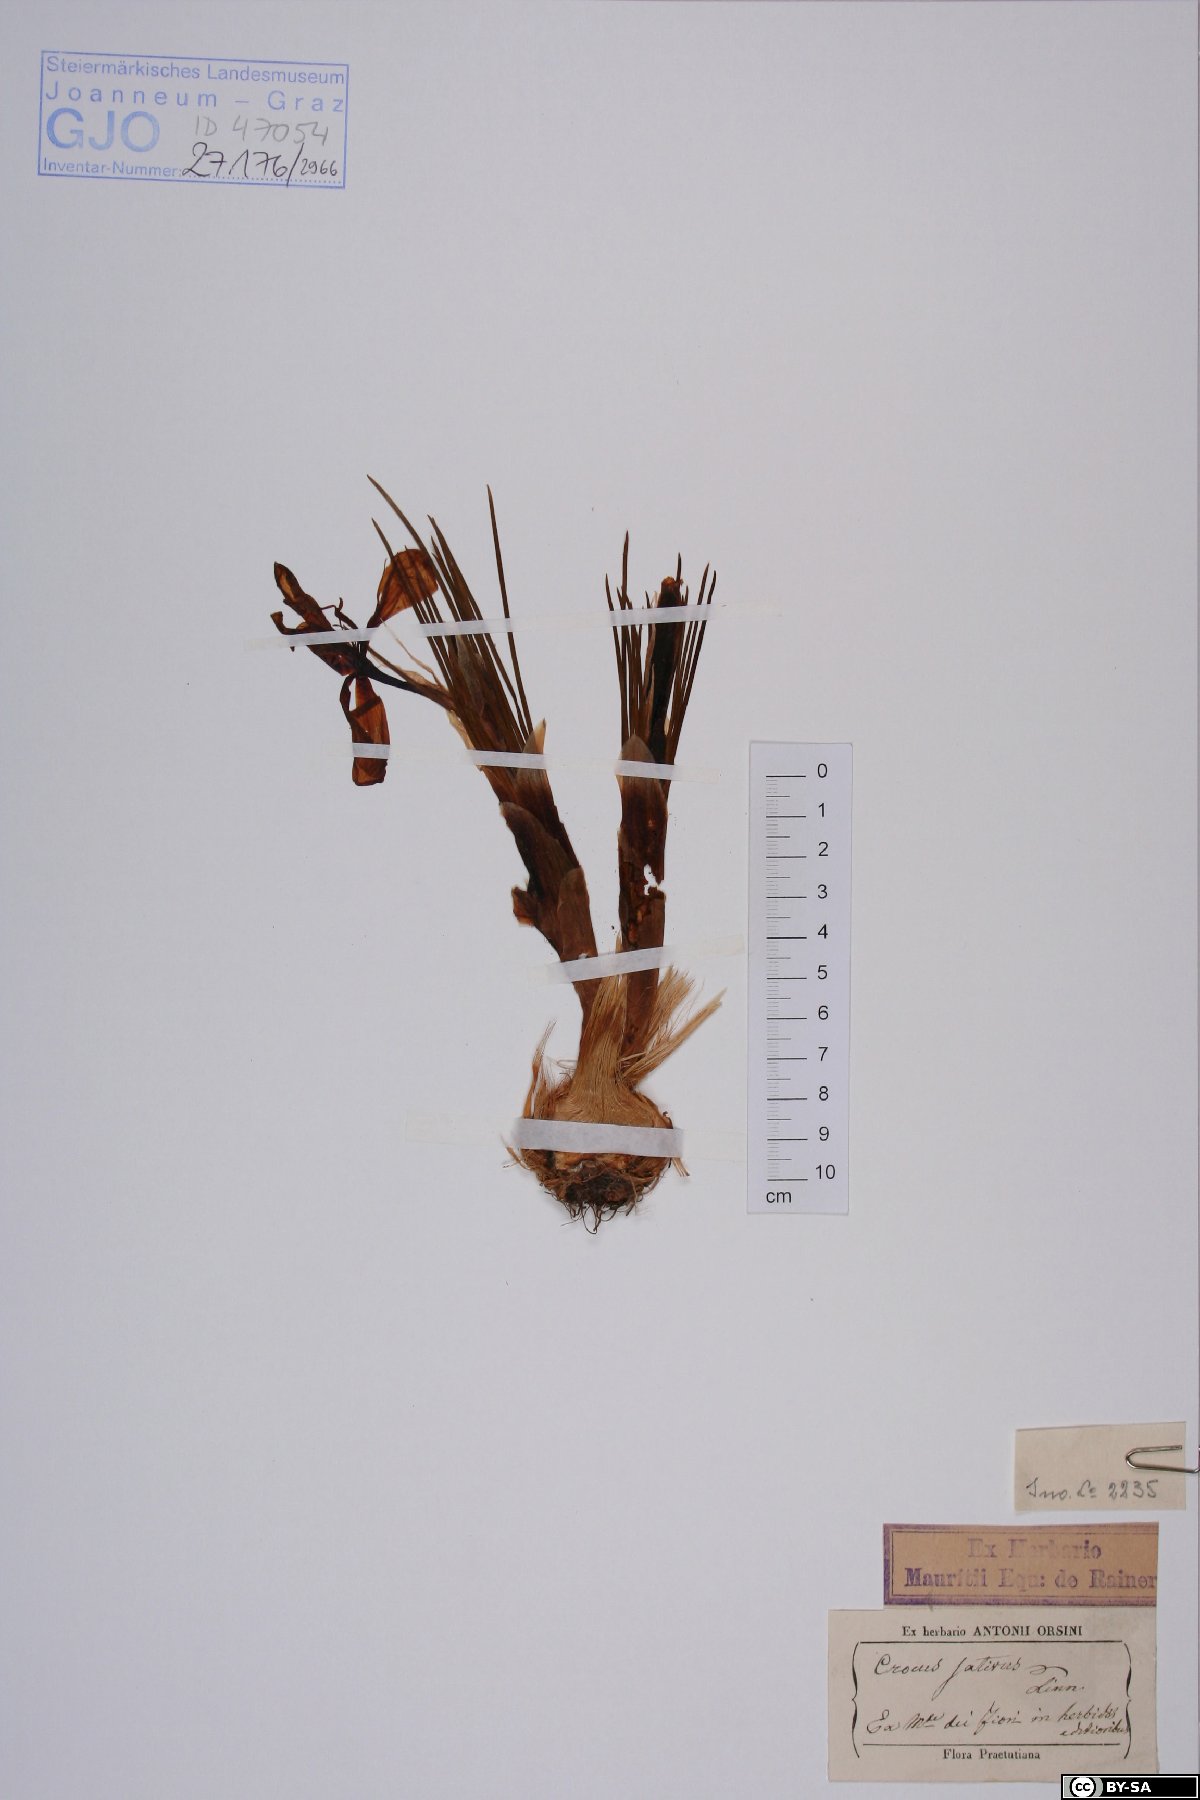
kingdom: Plantae
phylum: Tracheophyta
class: Liliopsida
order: Asparagales
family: Iridaceae
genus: Crocus
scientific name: Crocus sativus
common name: Saffron crocus
